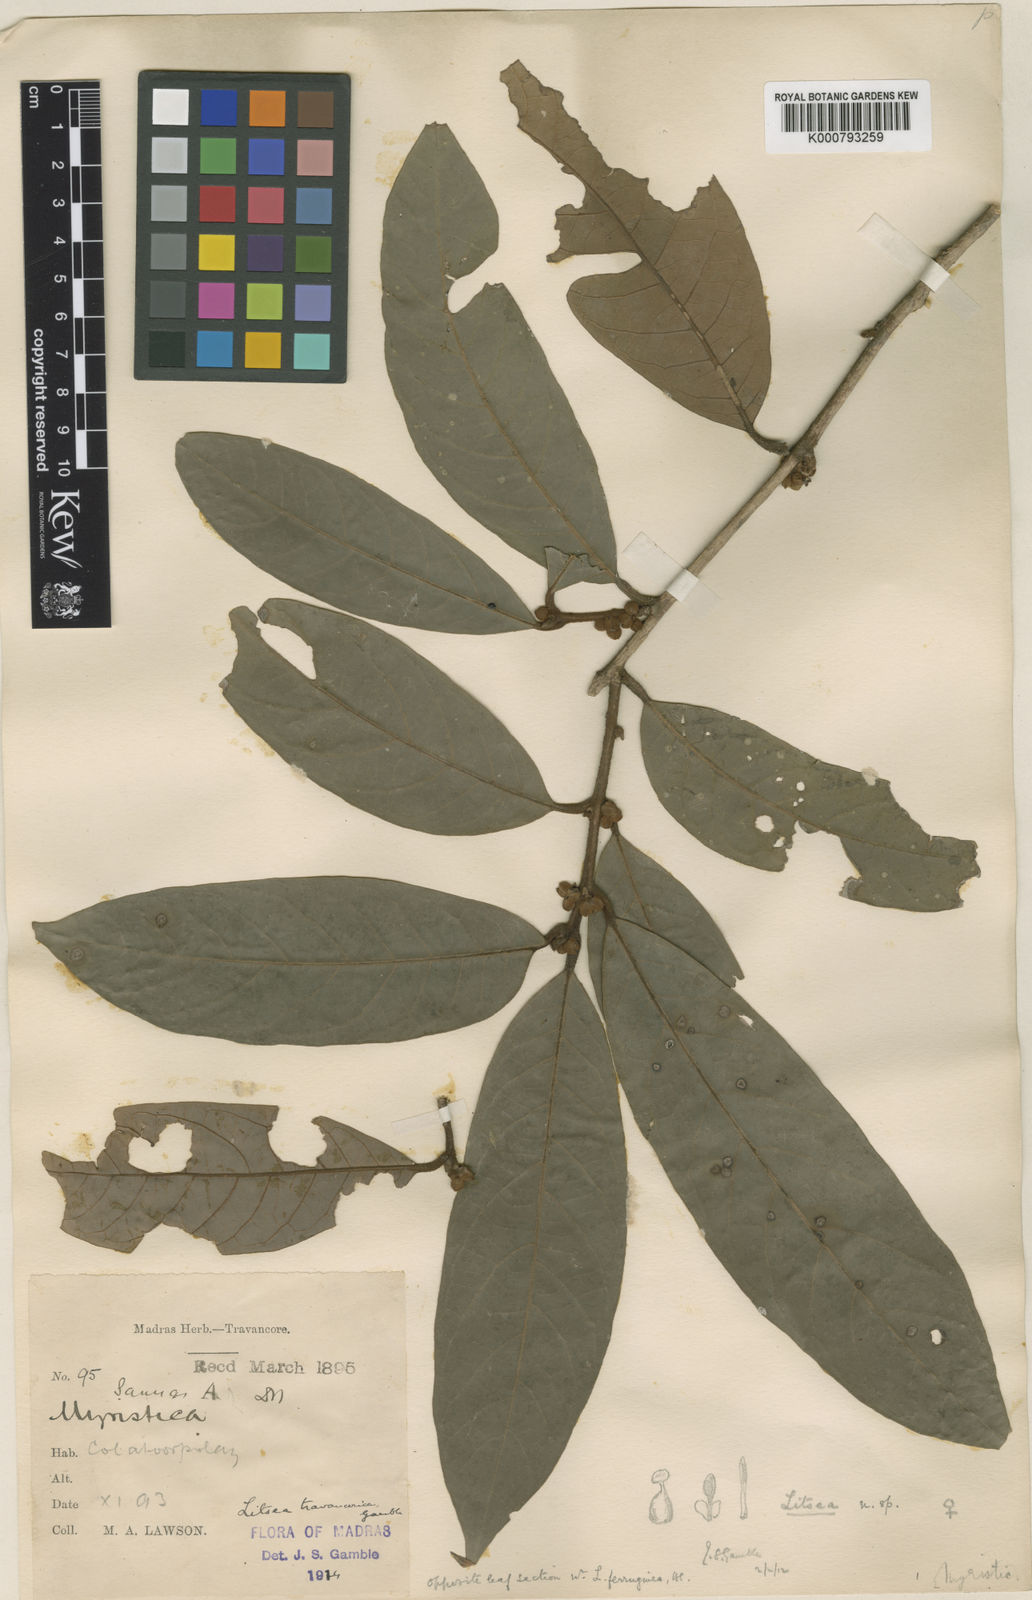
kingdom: Plantae
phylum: Tracheophyta
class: Magnoliopsida
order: Laurales
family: Lauraceae
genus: Litsea
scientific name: Litsea travancorica
